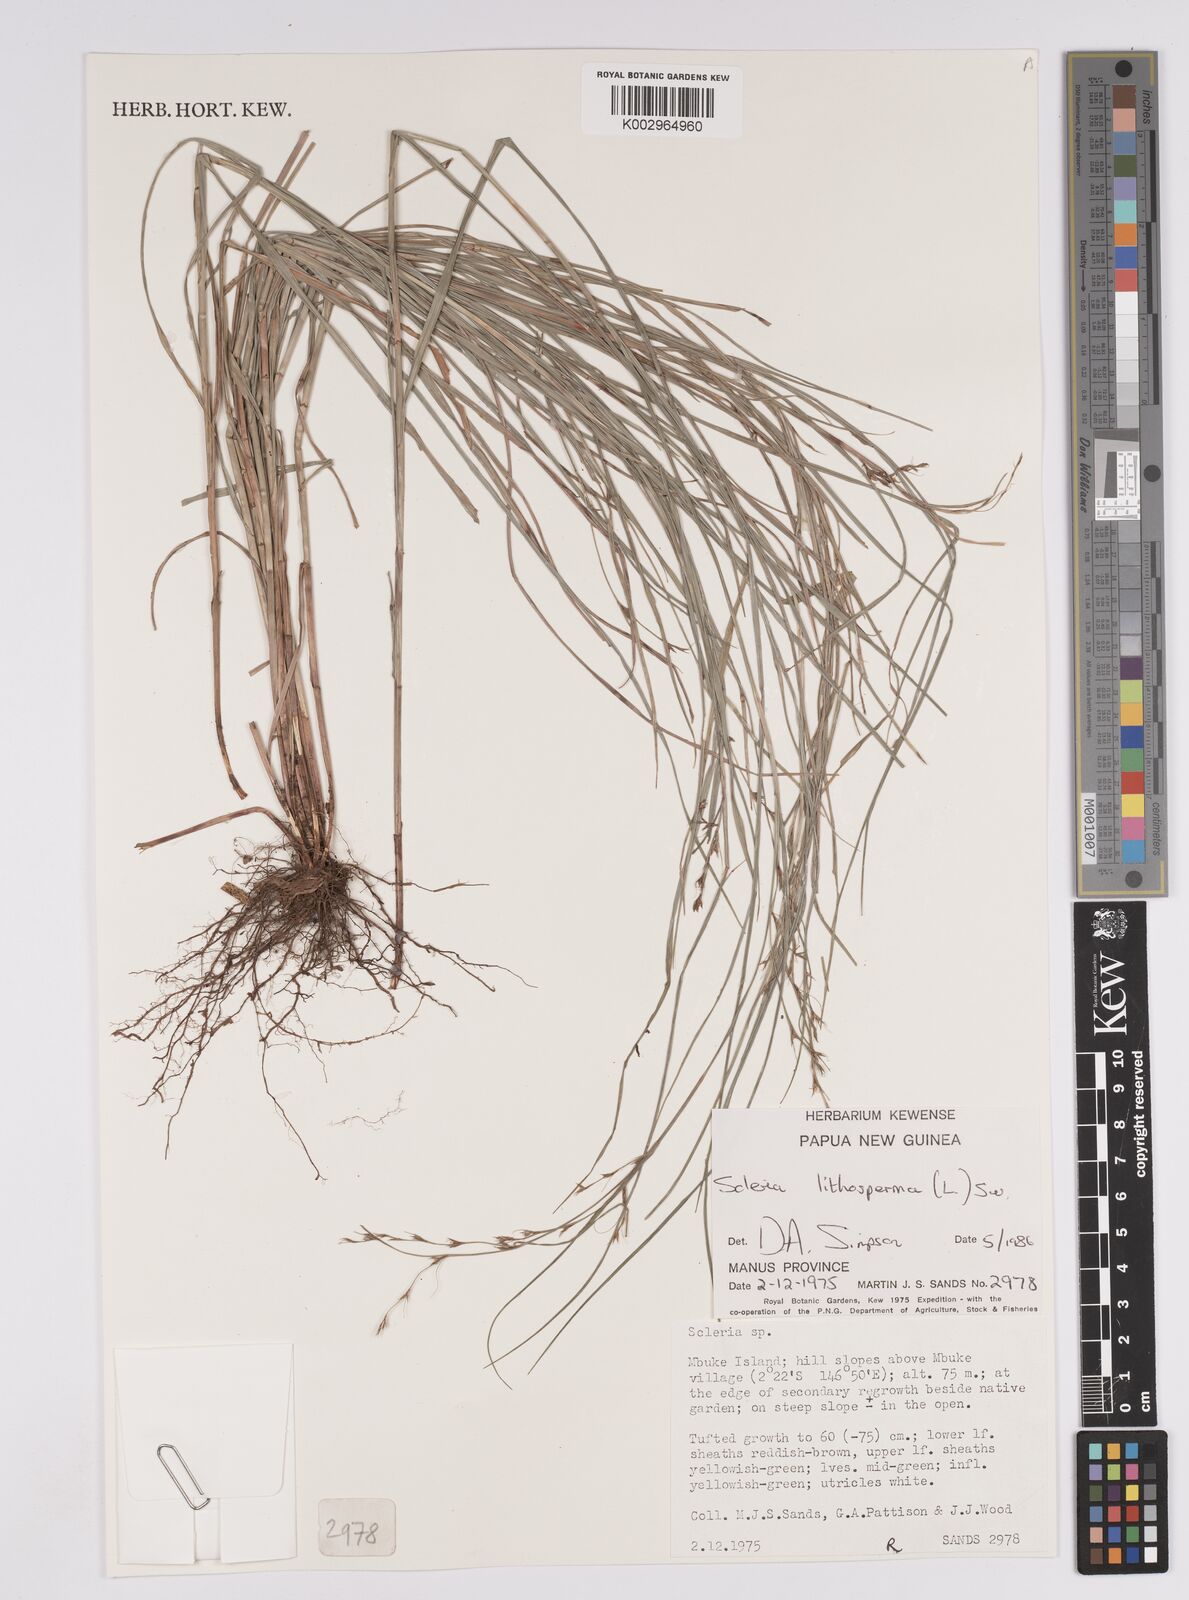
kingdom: Plantae
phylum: Tracheophyta
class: Liliopsida
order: Poales
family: Cyperaceae
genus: Scleria
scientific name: Scleria lithosperma
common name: Florida keys nut-rush
